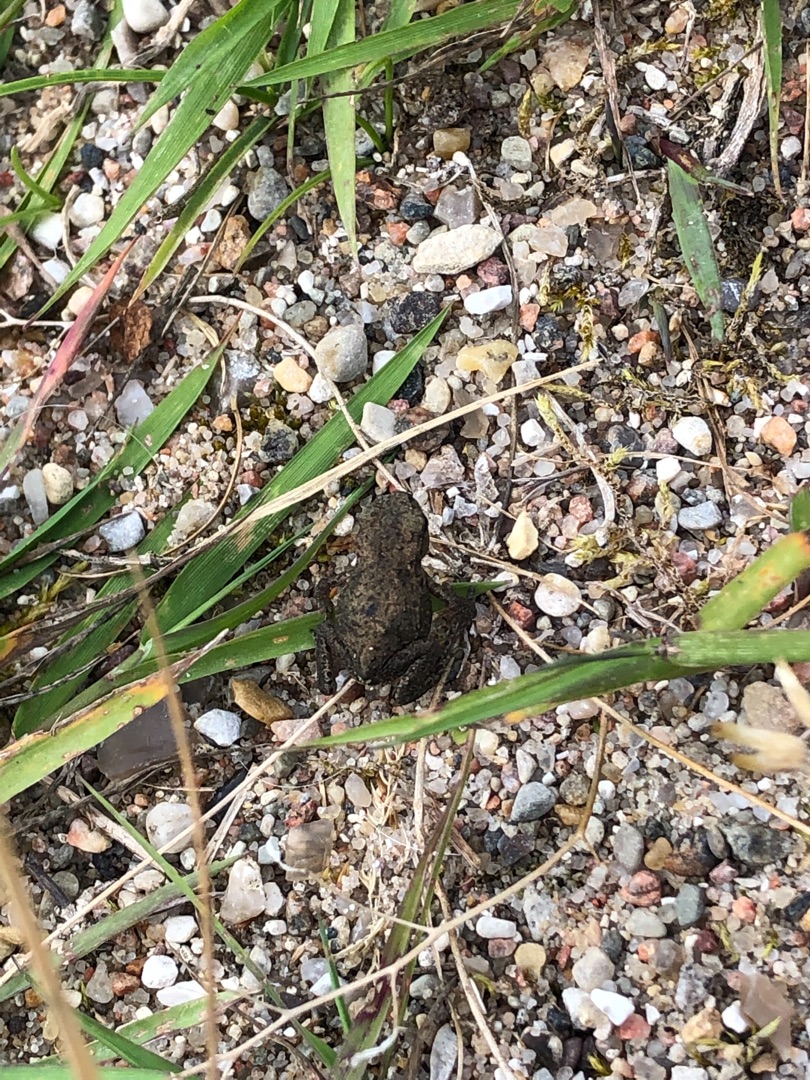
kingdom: Animalia
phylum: Chordata
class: Amphibia
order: Anura
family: Bufonidae
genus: Bufo
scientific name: Bufo bufo
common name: Skrubtudse
